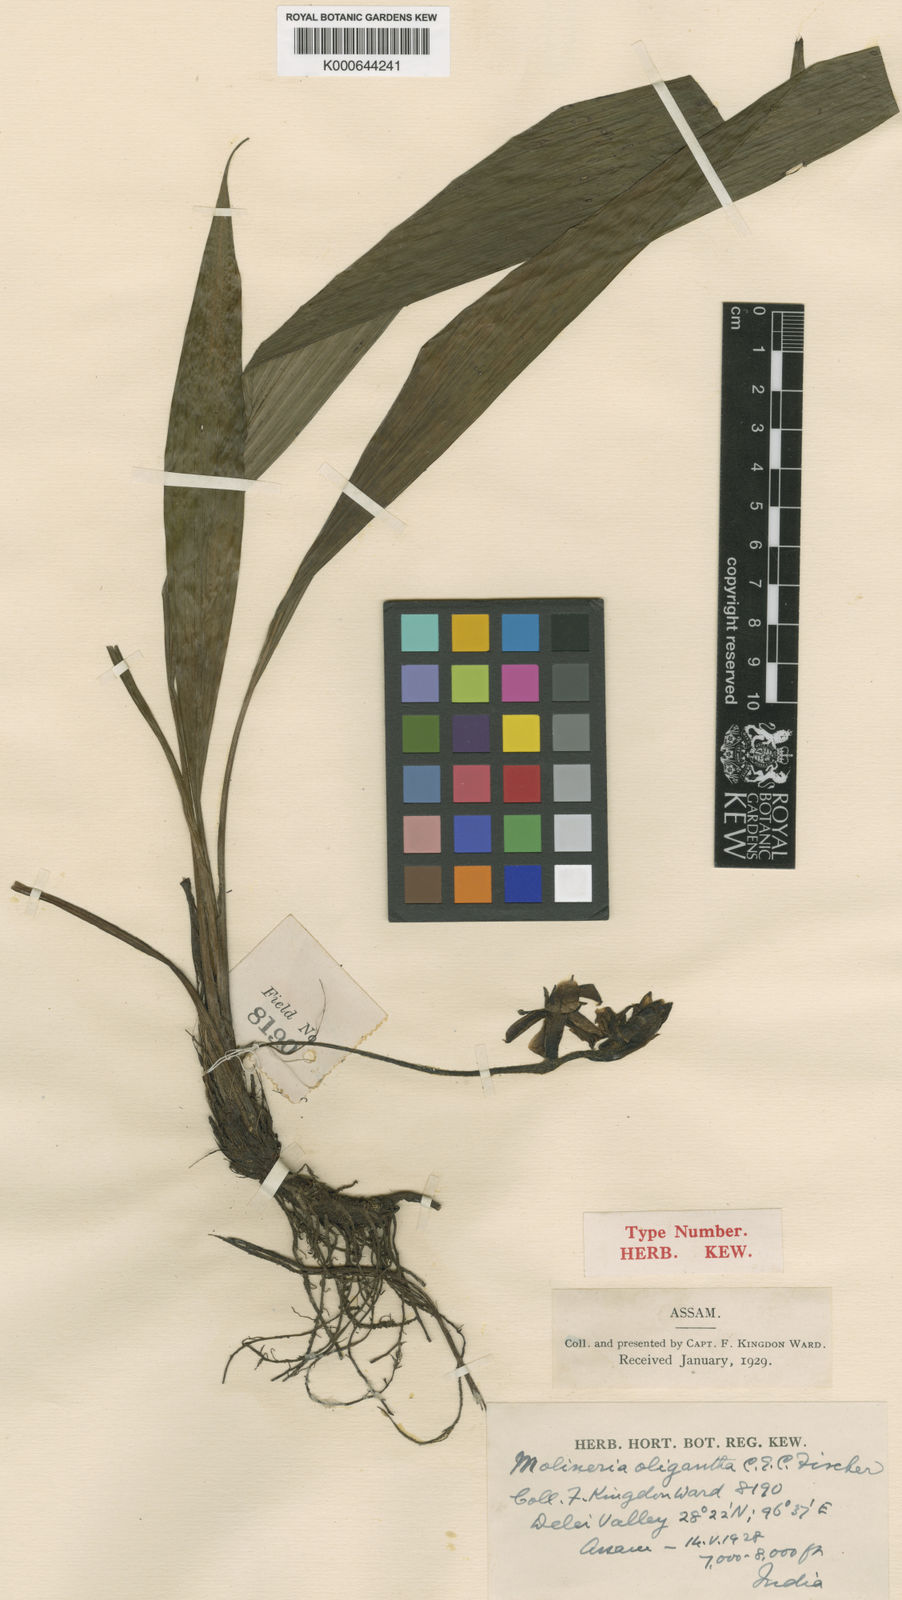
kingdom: Plantae
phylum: Tracheophyta
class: Liliopsida
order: Asparagales
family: Hypoxidaceae
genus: Curculigo
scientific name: Curculigo oligantha
